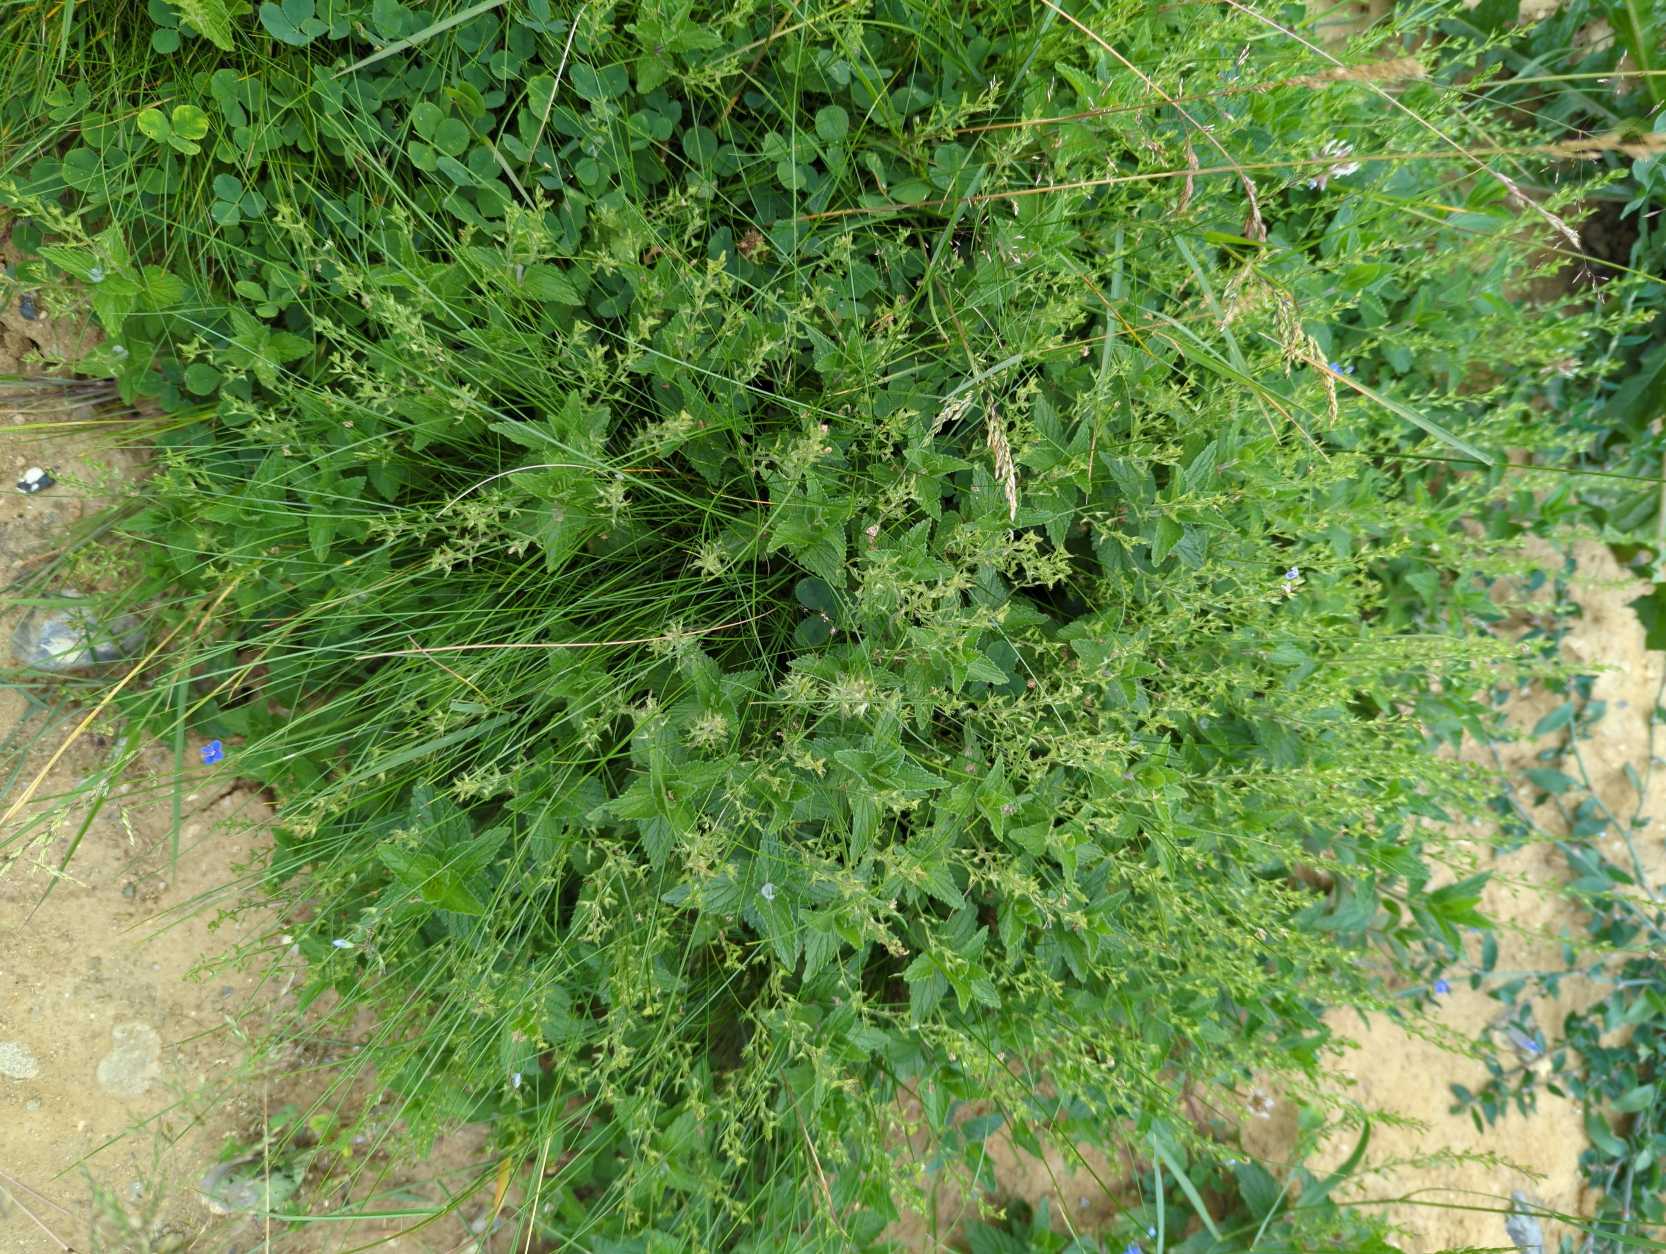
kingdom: Plantae
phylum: Tracheophyta
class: Magnoliopsida
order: Lamiales
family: Plantaginaceae
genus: Veronica
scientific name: Veronica chamaedrys
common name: Tveskægget ærenpris
